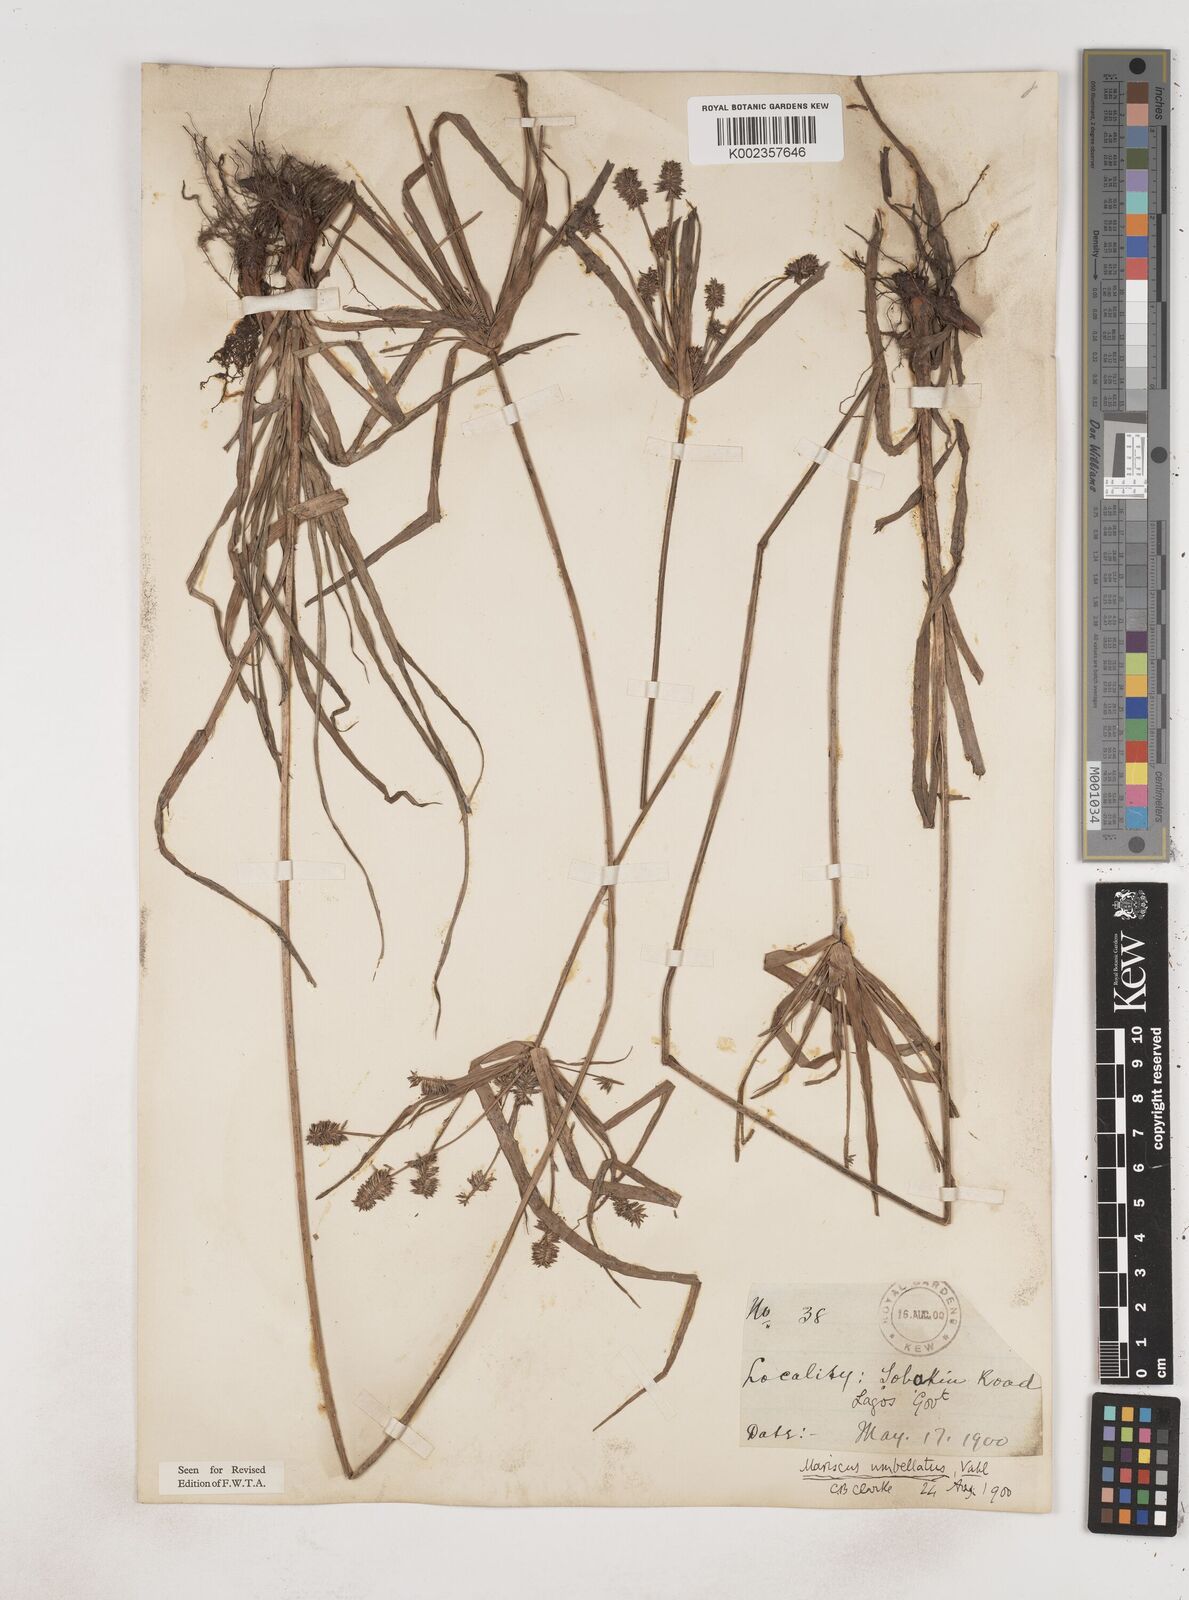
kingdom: Plantae
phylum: Tracheophyta
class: Liliopsida
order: Poales
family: Cyperaceae
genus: Cyperus
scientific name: Cyperus cyperoides
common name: Pacific island flat sedge
